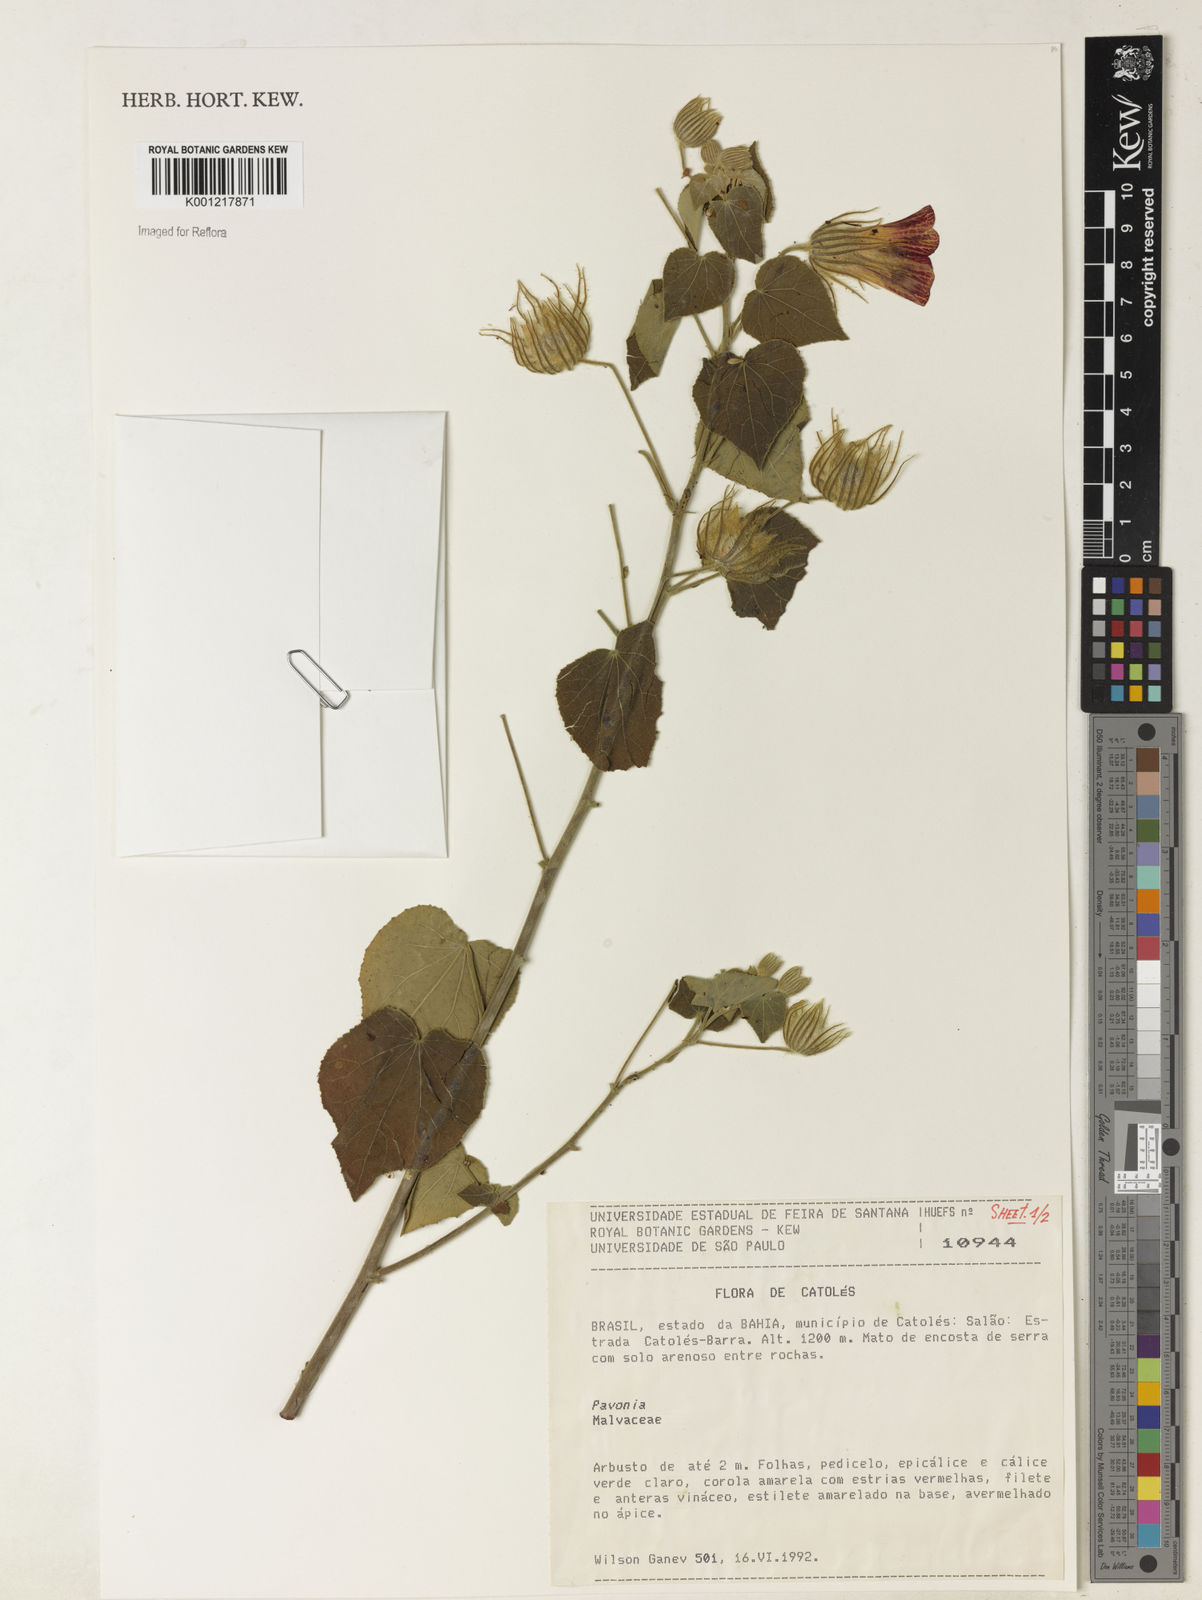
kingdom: Plantae
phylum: Tracheophyta
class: Magnoliopsida
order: Malvales
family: Malvaceae
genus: Pavonia
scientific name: Pavonia
